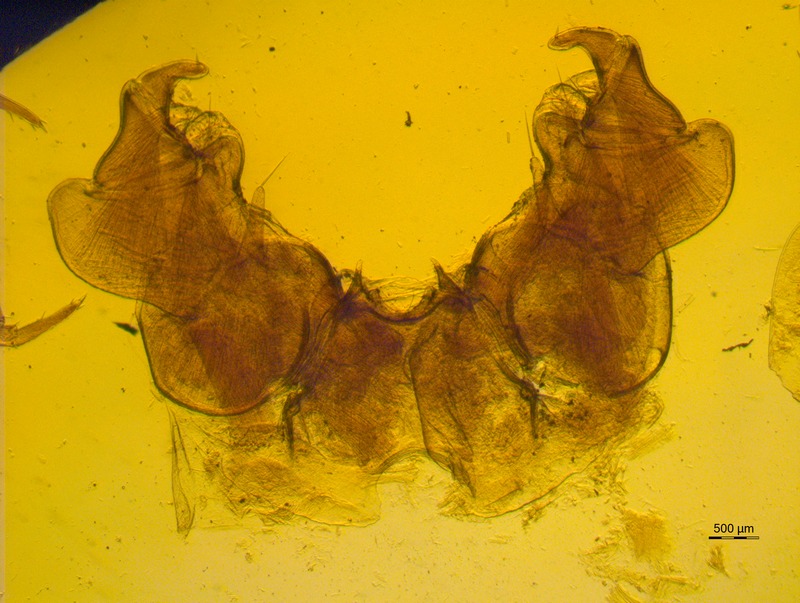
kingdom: Animalia
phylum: Arthropoda
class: Diplopoda
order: Glomerida
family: Glomeridae
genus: Loboglomeris
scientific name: Loboglomeris pyrenaica
